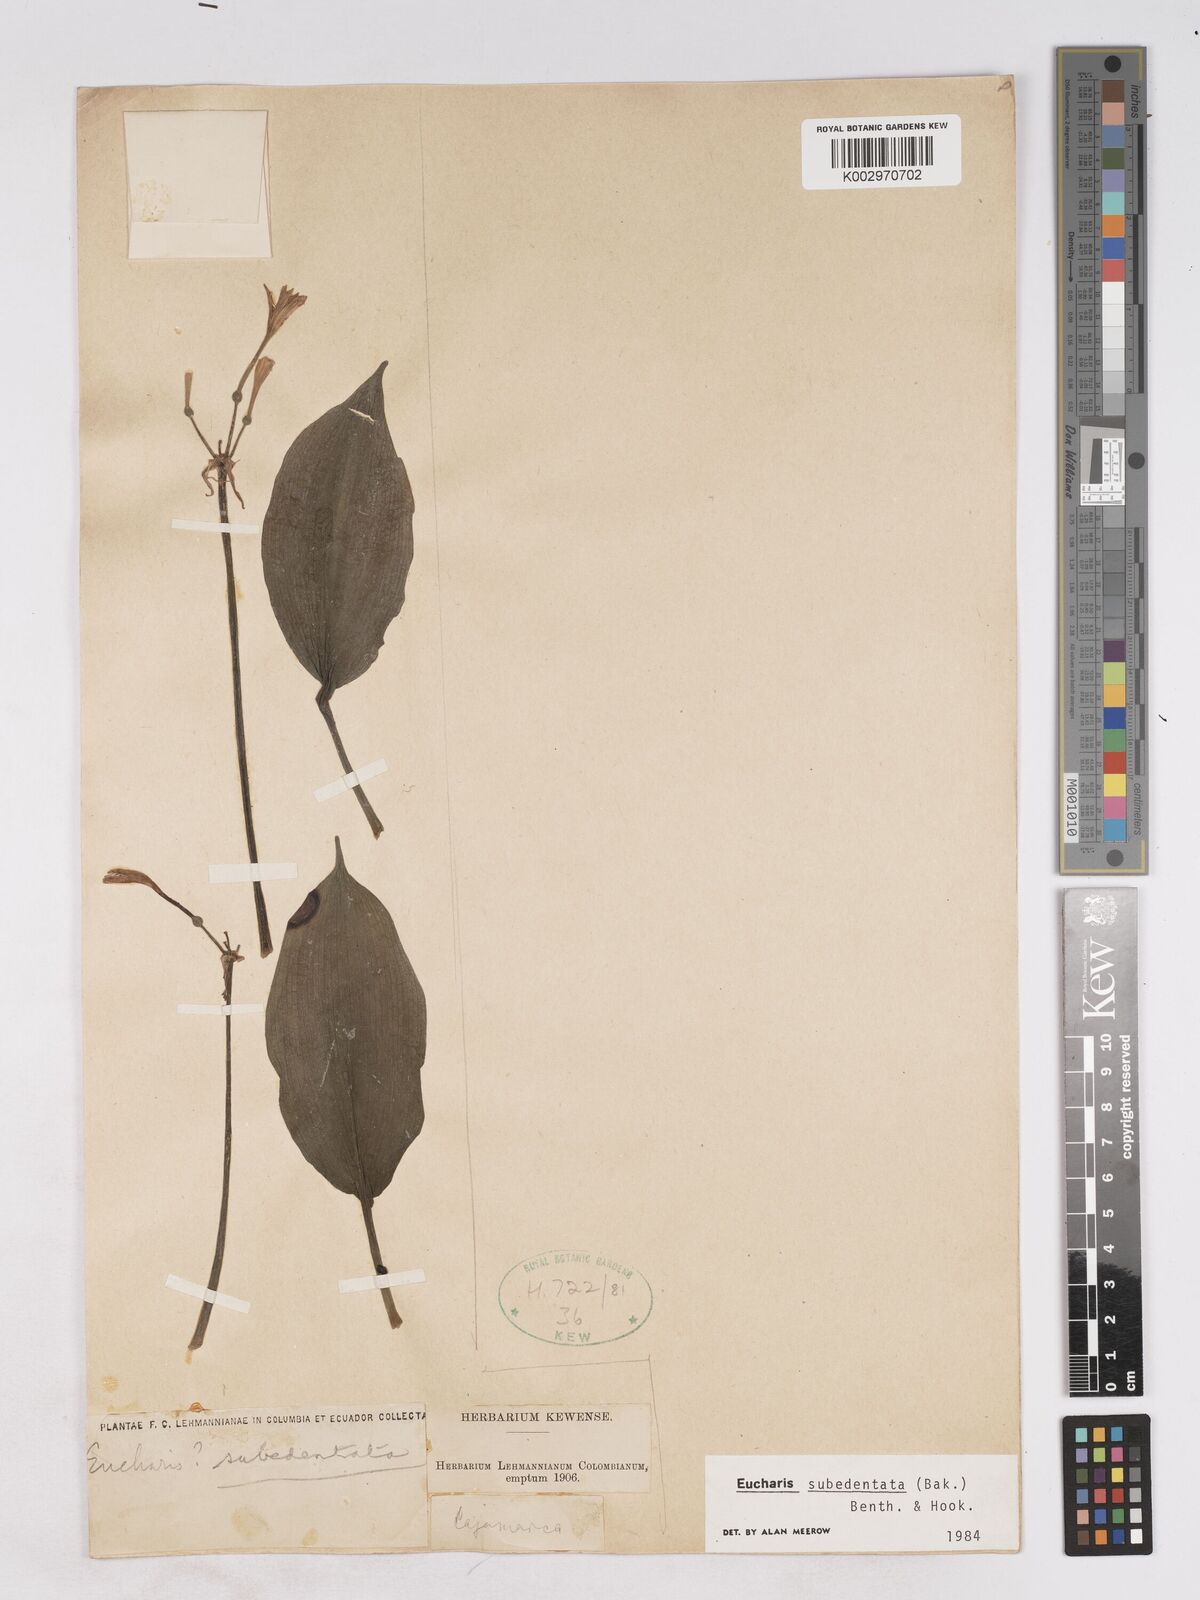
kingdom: Plantae
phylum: Tracheophyta
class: Liliopsida
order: Asparagales
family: Amaryllidaceae
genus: Urceolina
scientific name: Urceolina subedentata
